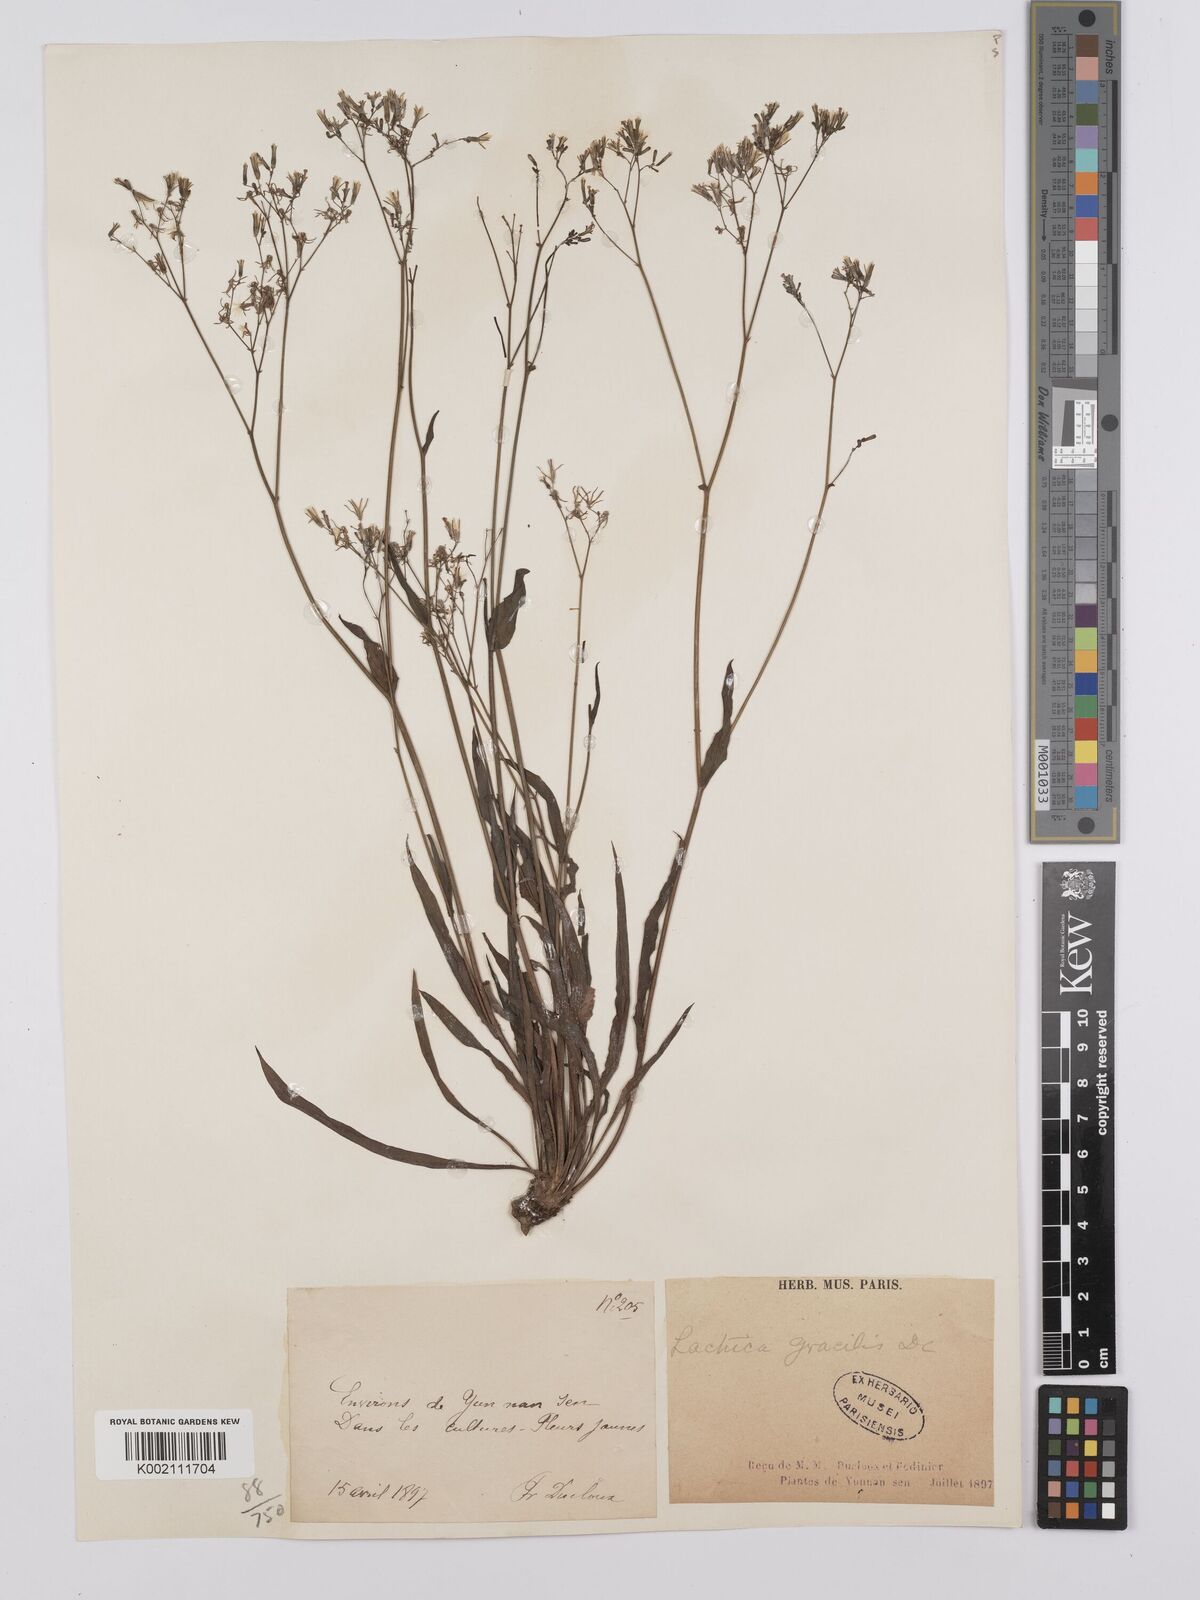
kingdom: Plantae
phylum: Tracheophyta
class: Magnoliopsida
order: Asterales
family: Asteraceae
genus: Ixeridium
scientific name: Ixeridium
